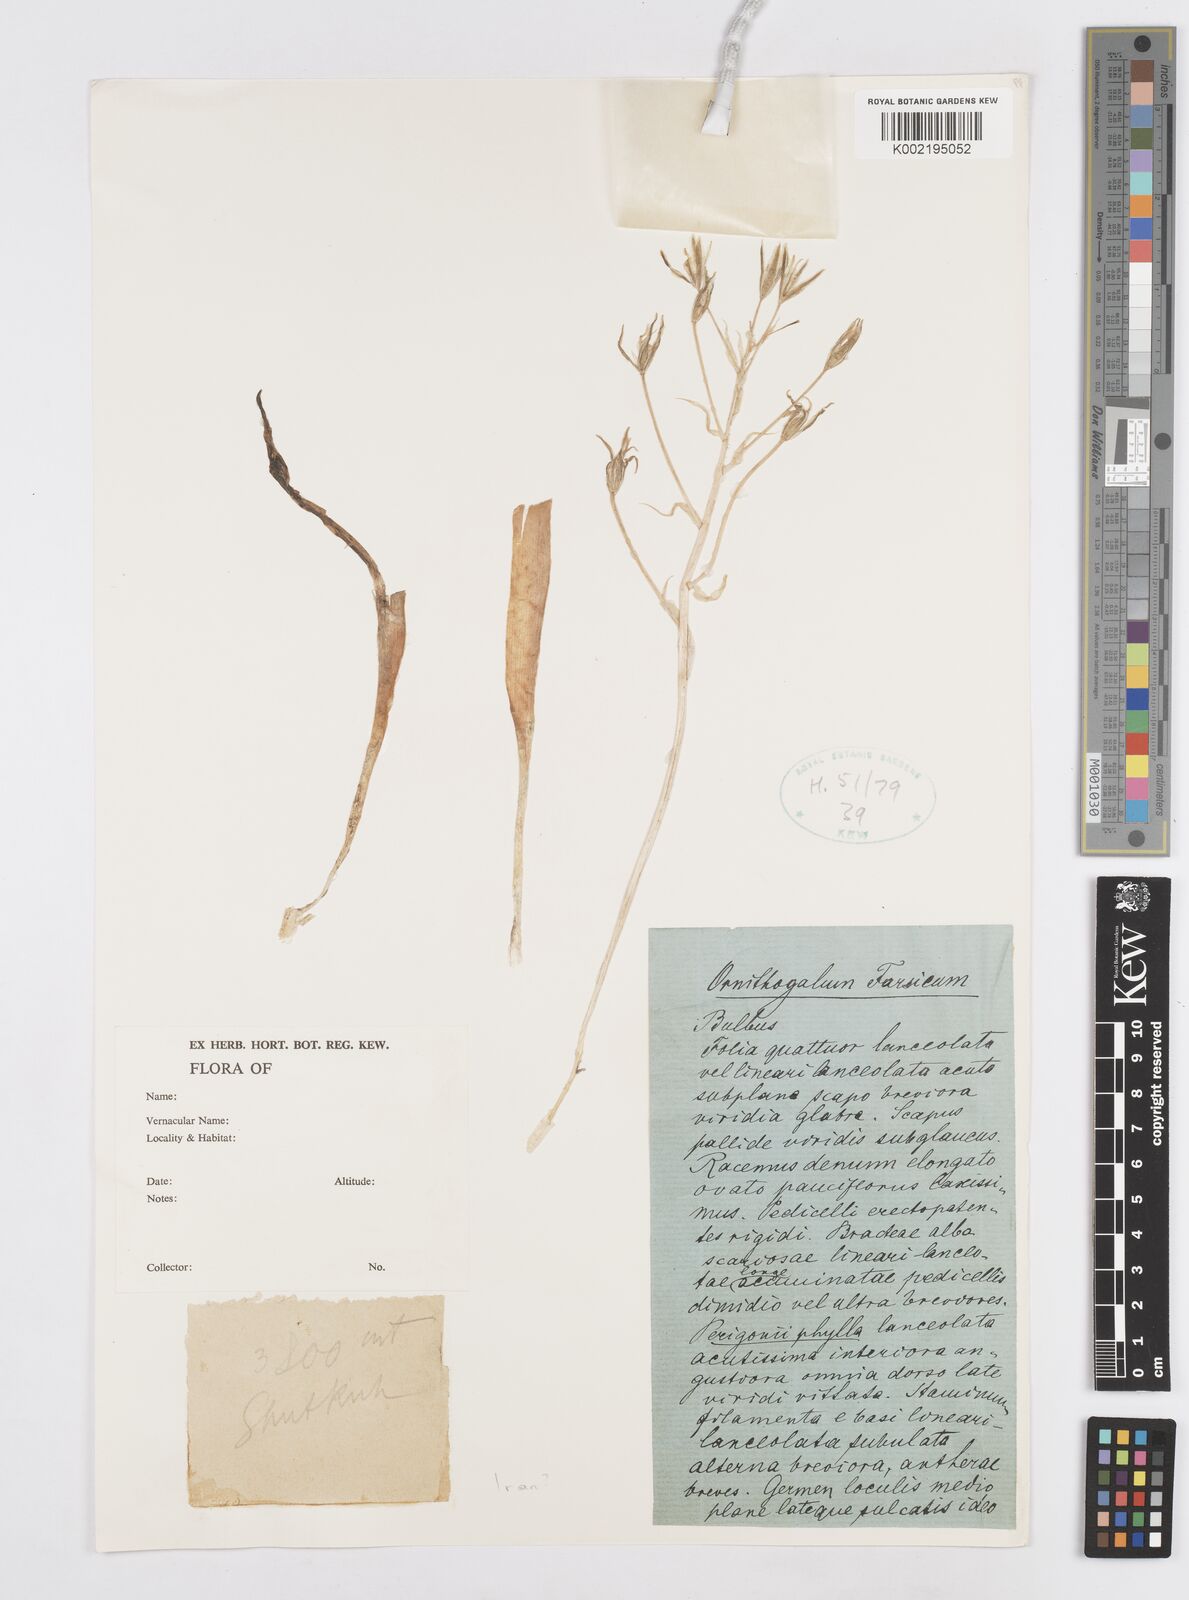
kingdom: Plantae
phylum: Tracheophyta
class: Liliopsida
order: Asparagales
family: Asparagaceae
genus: Ornithogalum
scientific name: Ornithogalum
